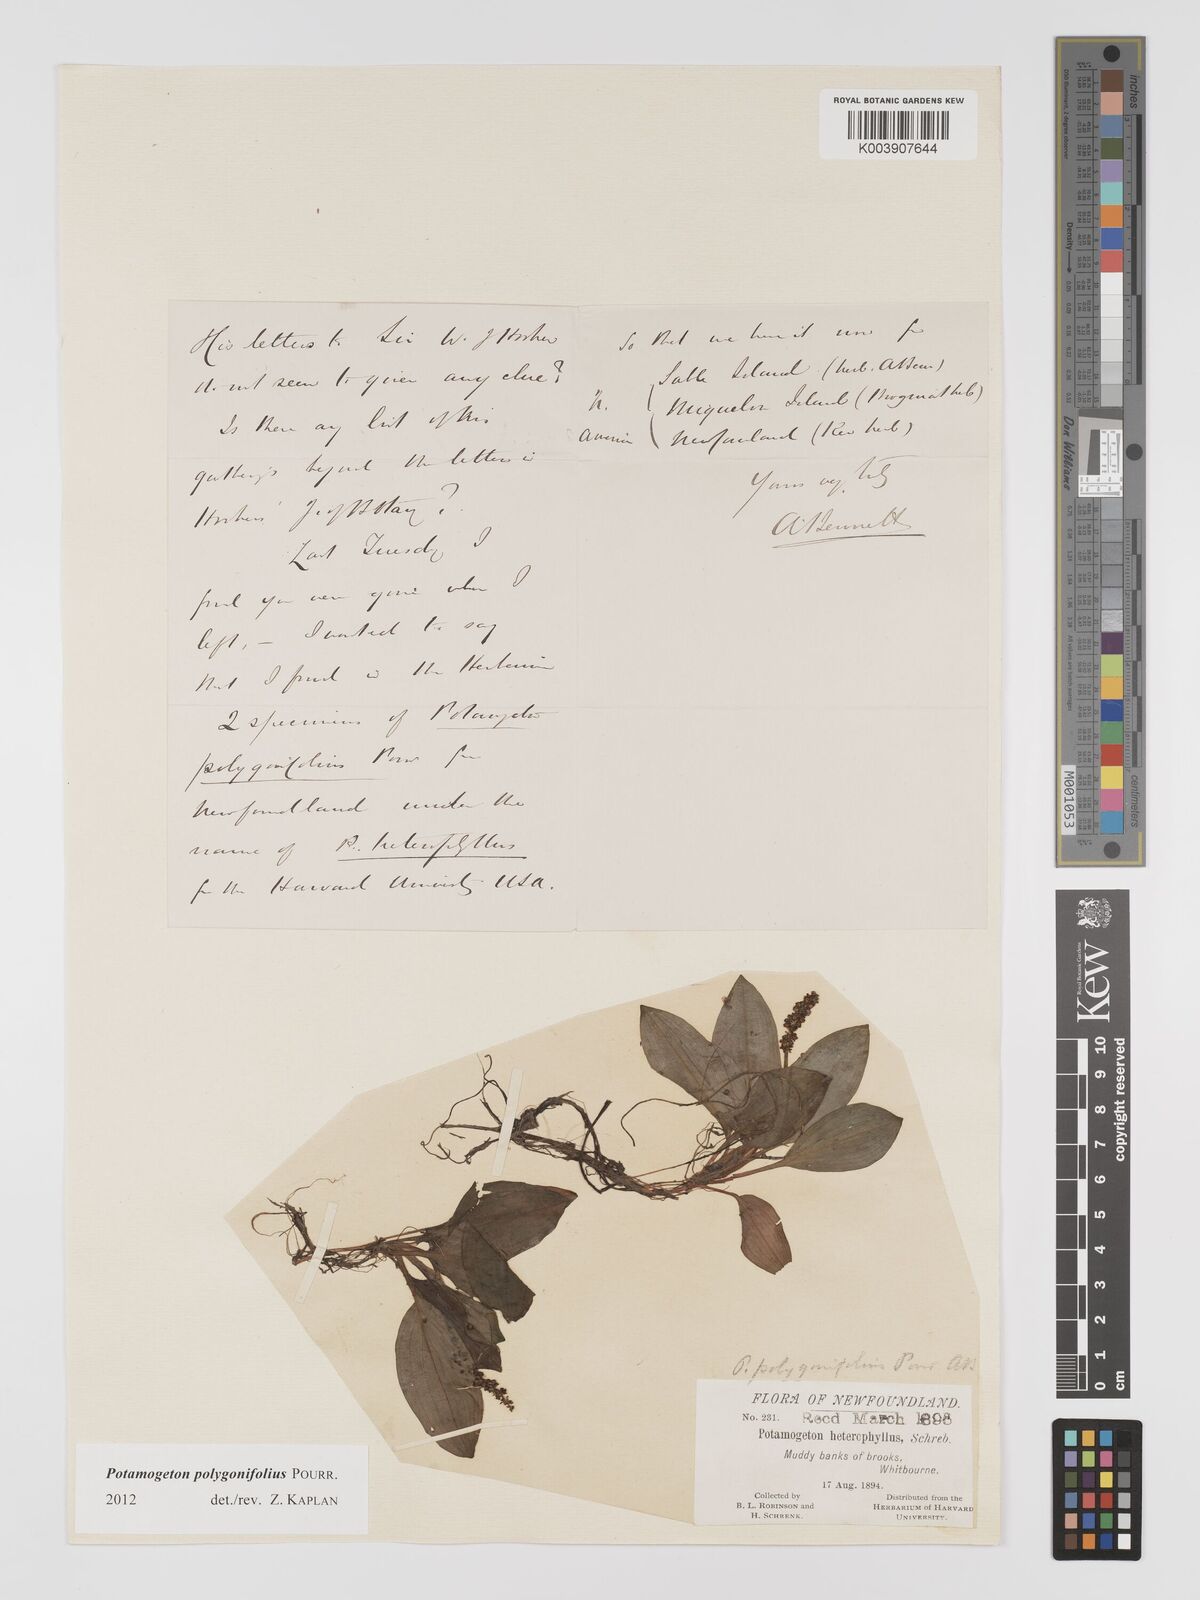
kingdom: Plantae
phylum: Tracheophyta
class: Liliopsida
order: Alismatales
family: Potamogetonaceae
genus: Potamogeton
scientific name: Potamogeton polygonifolius
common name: Bog pondweed
